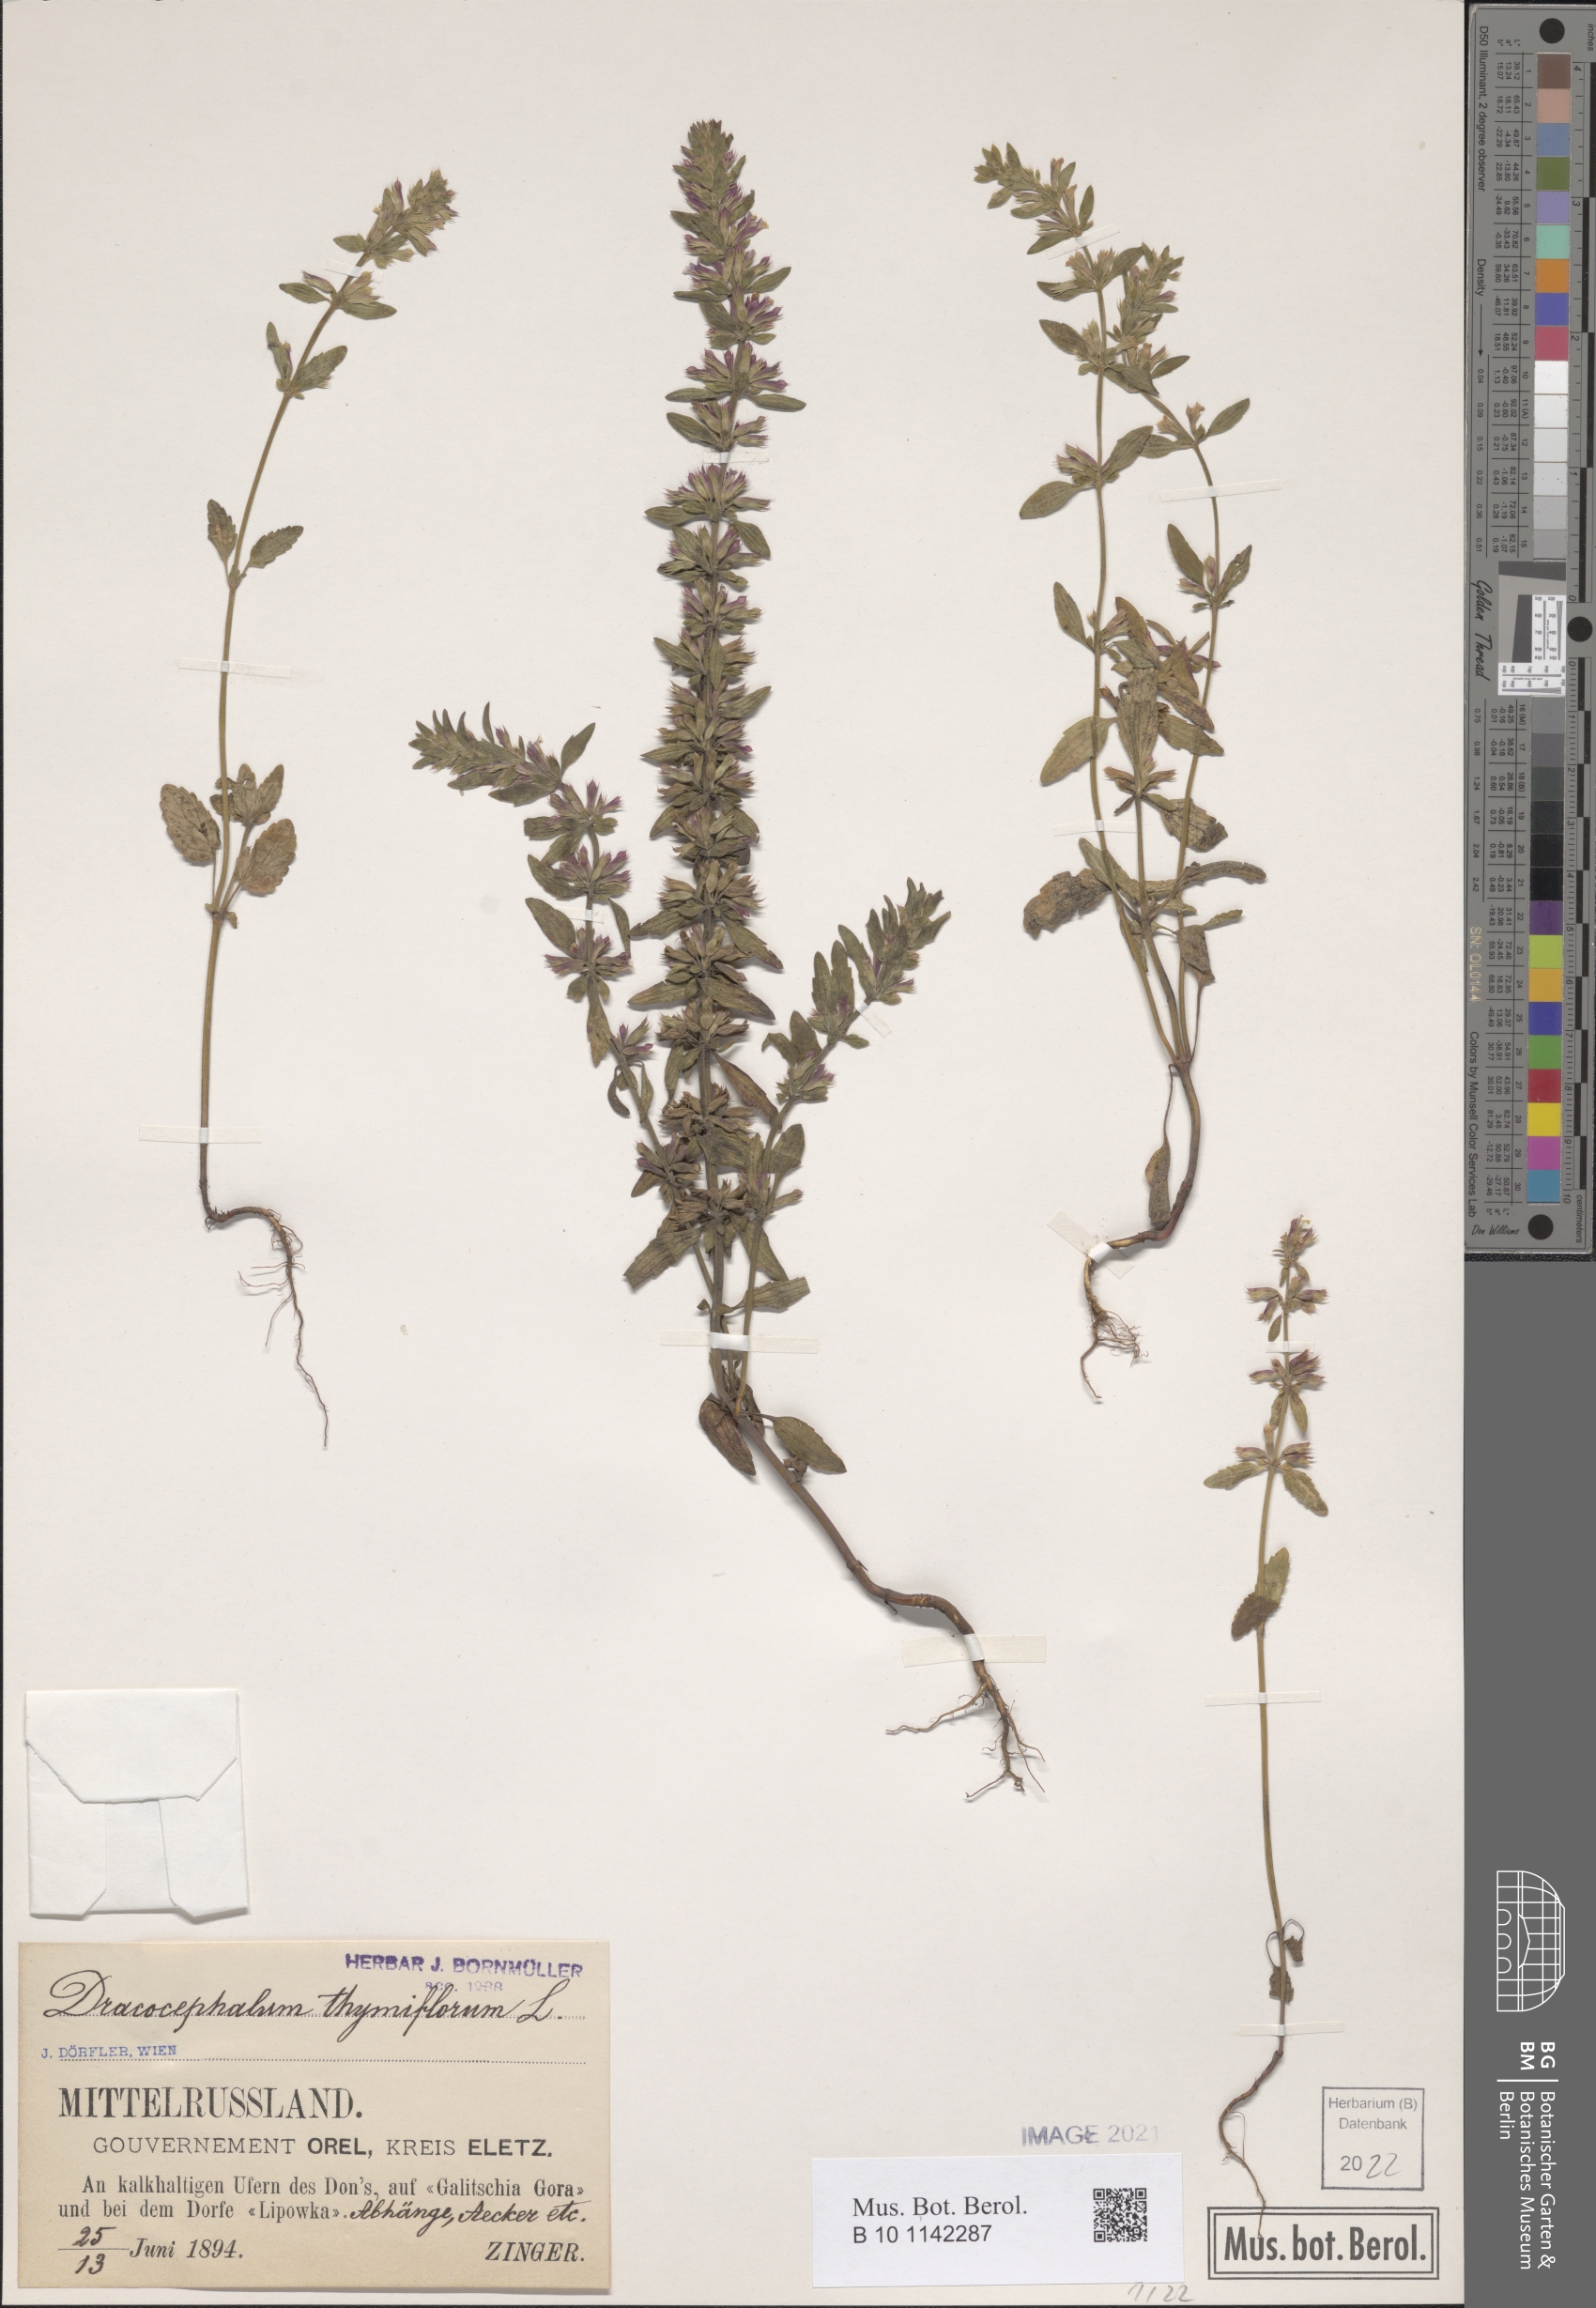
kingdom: Plantae
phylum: Tracheophyta
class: Magnoliopsida
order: Lamiales
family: Lamiaceae
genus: Dracocephalum
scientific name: Dracocephalum thymiflorum
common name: Thymeleaf dragonhead
